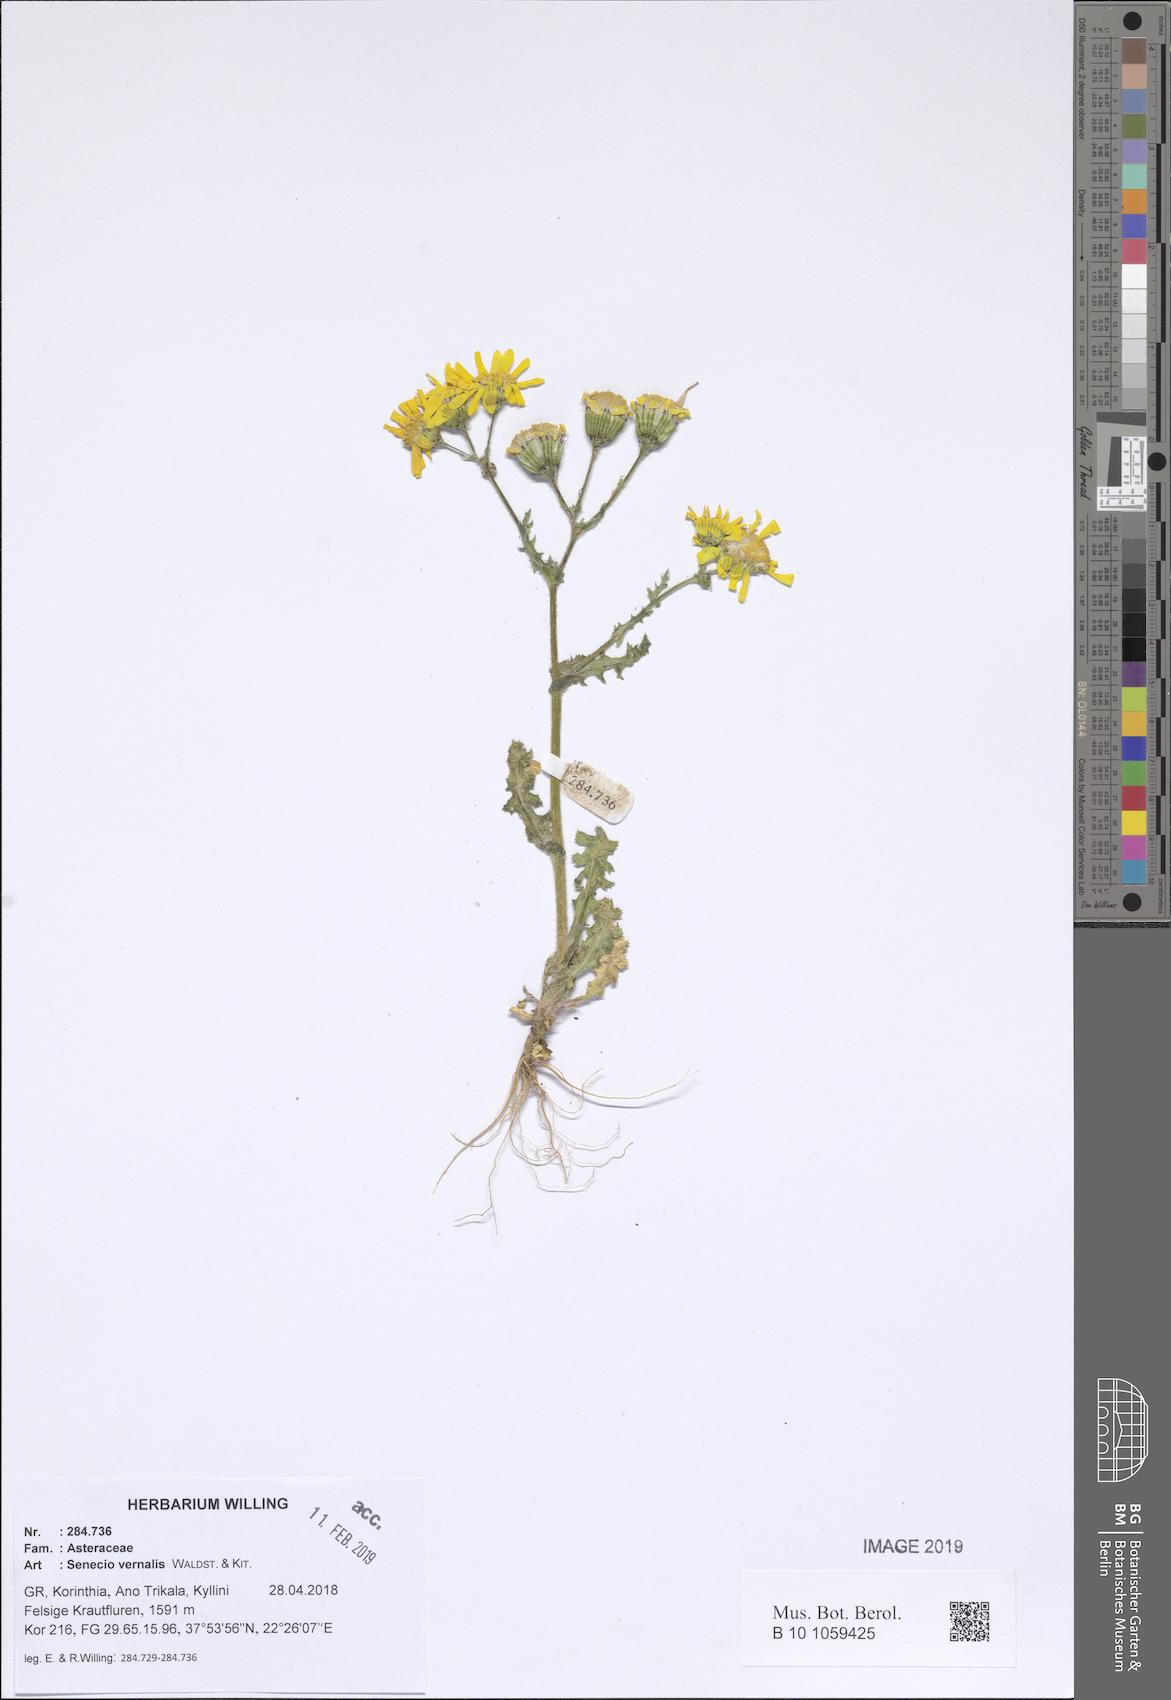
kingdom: Plantae
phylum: Tracheophyta
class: Magnoliopsida
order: Asterales
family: Asteraceae
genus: Senecio
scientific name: Senecio vernalis
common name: Eastern groundsel
